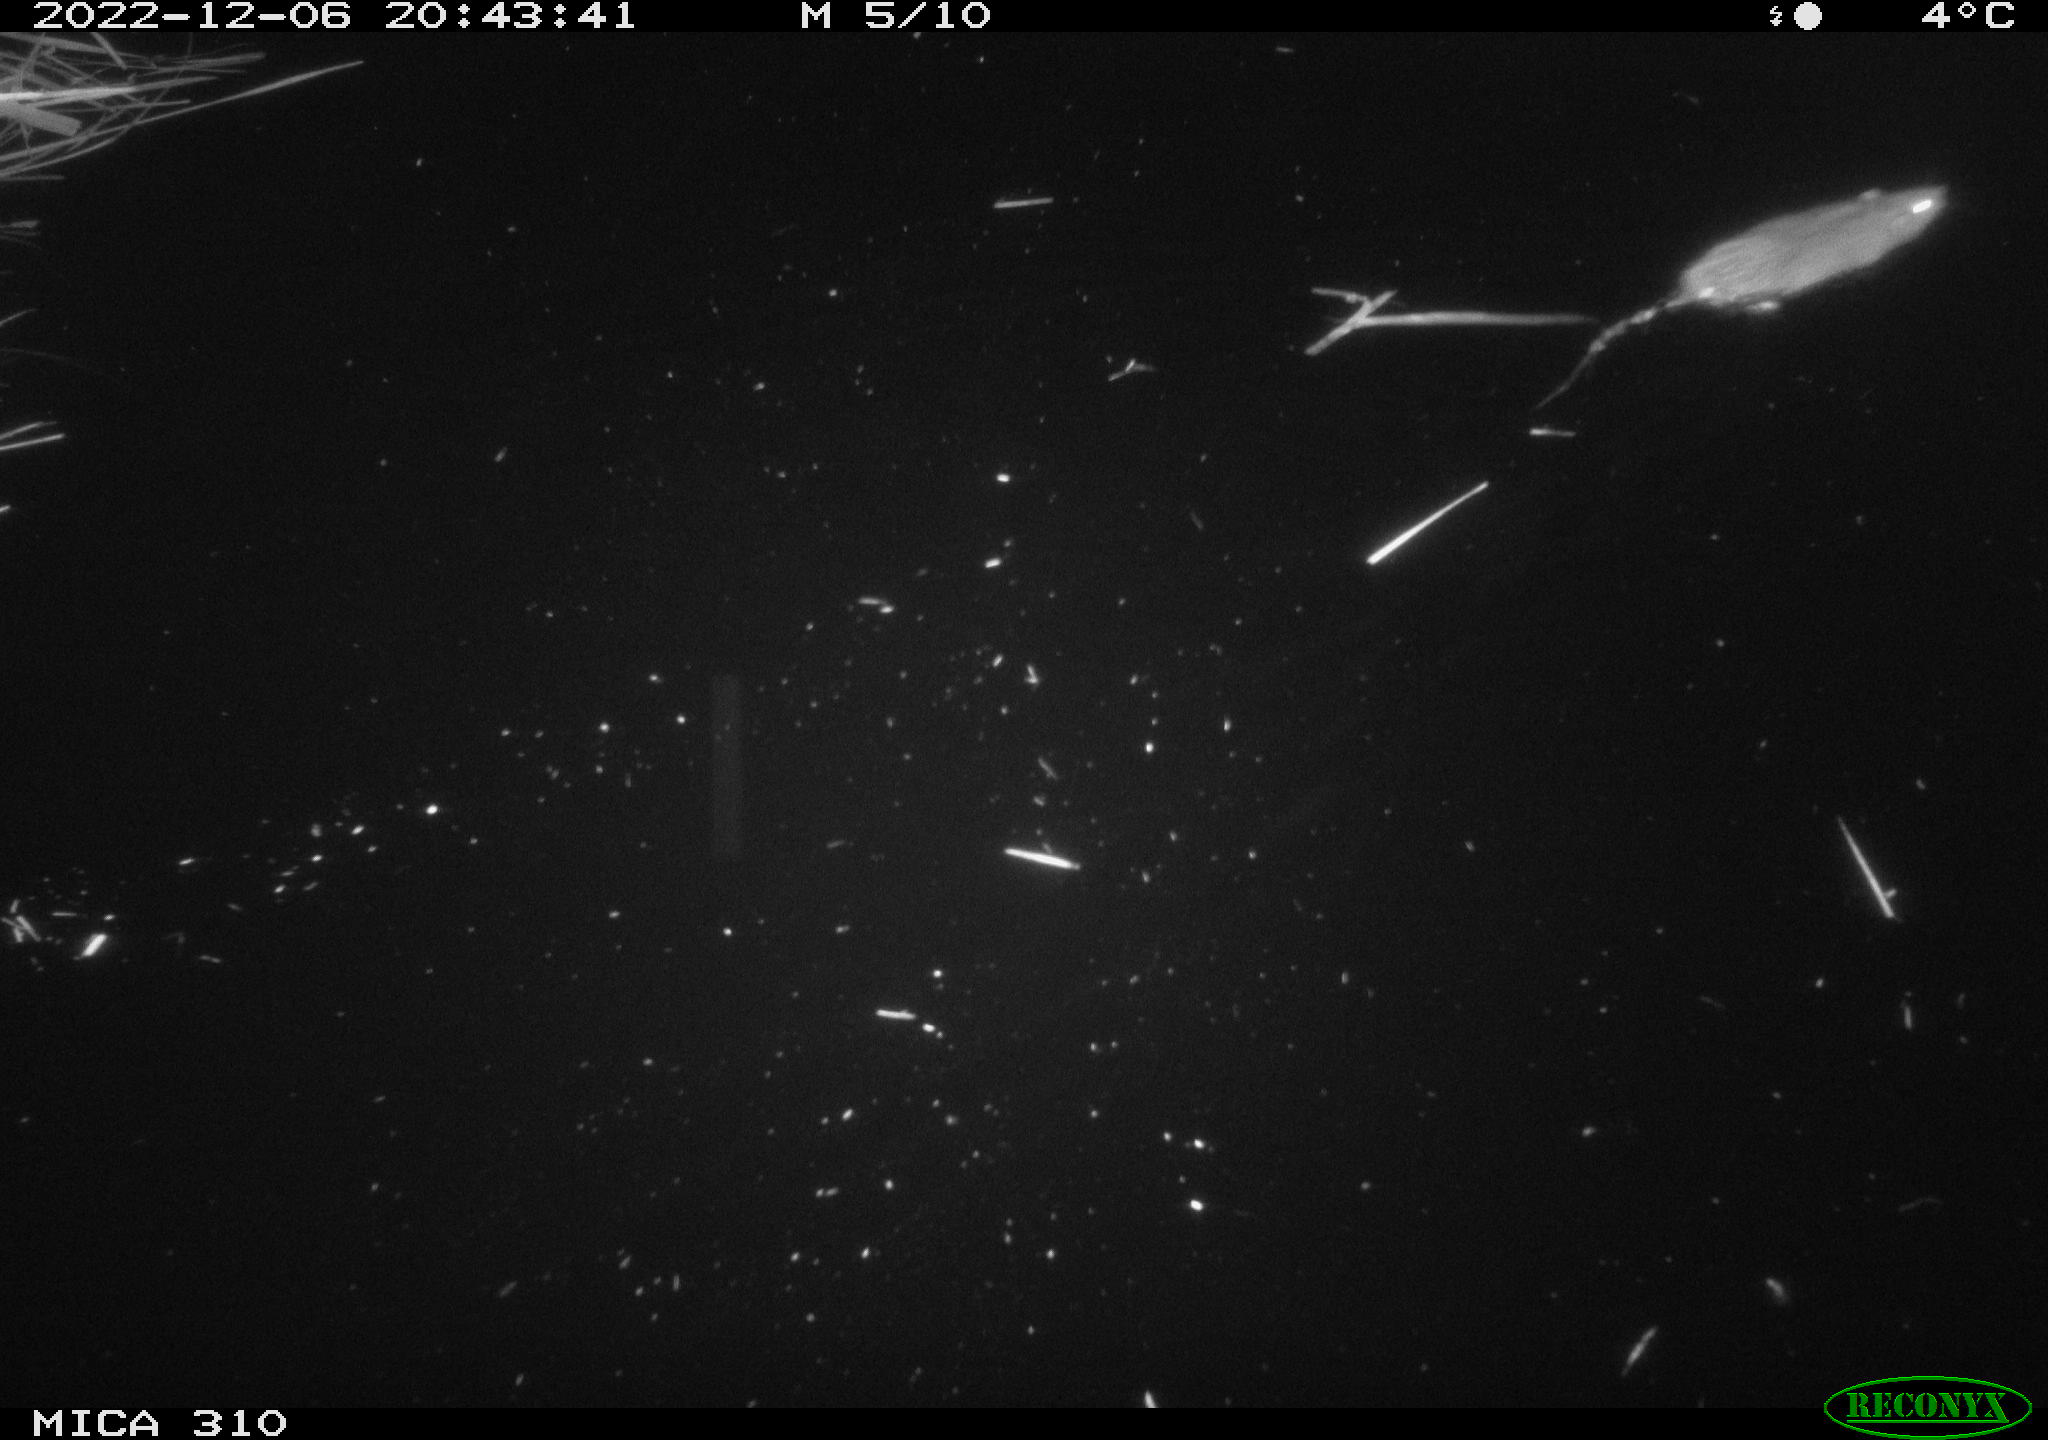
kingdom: Animalia
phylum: Chordata
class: Mammalia
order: Rodentia
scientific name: Rodentia
